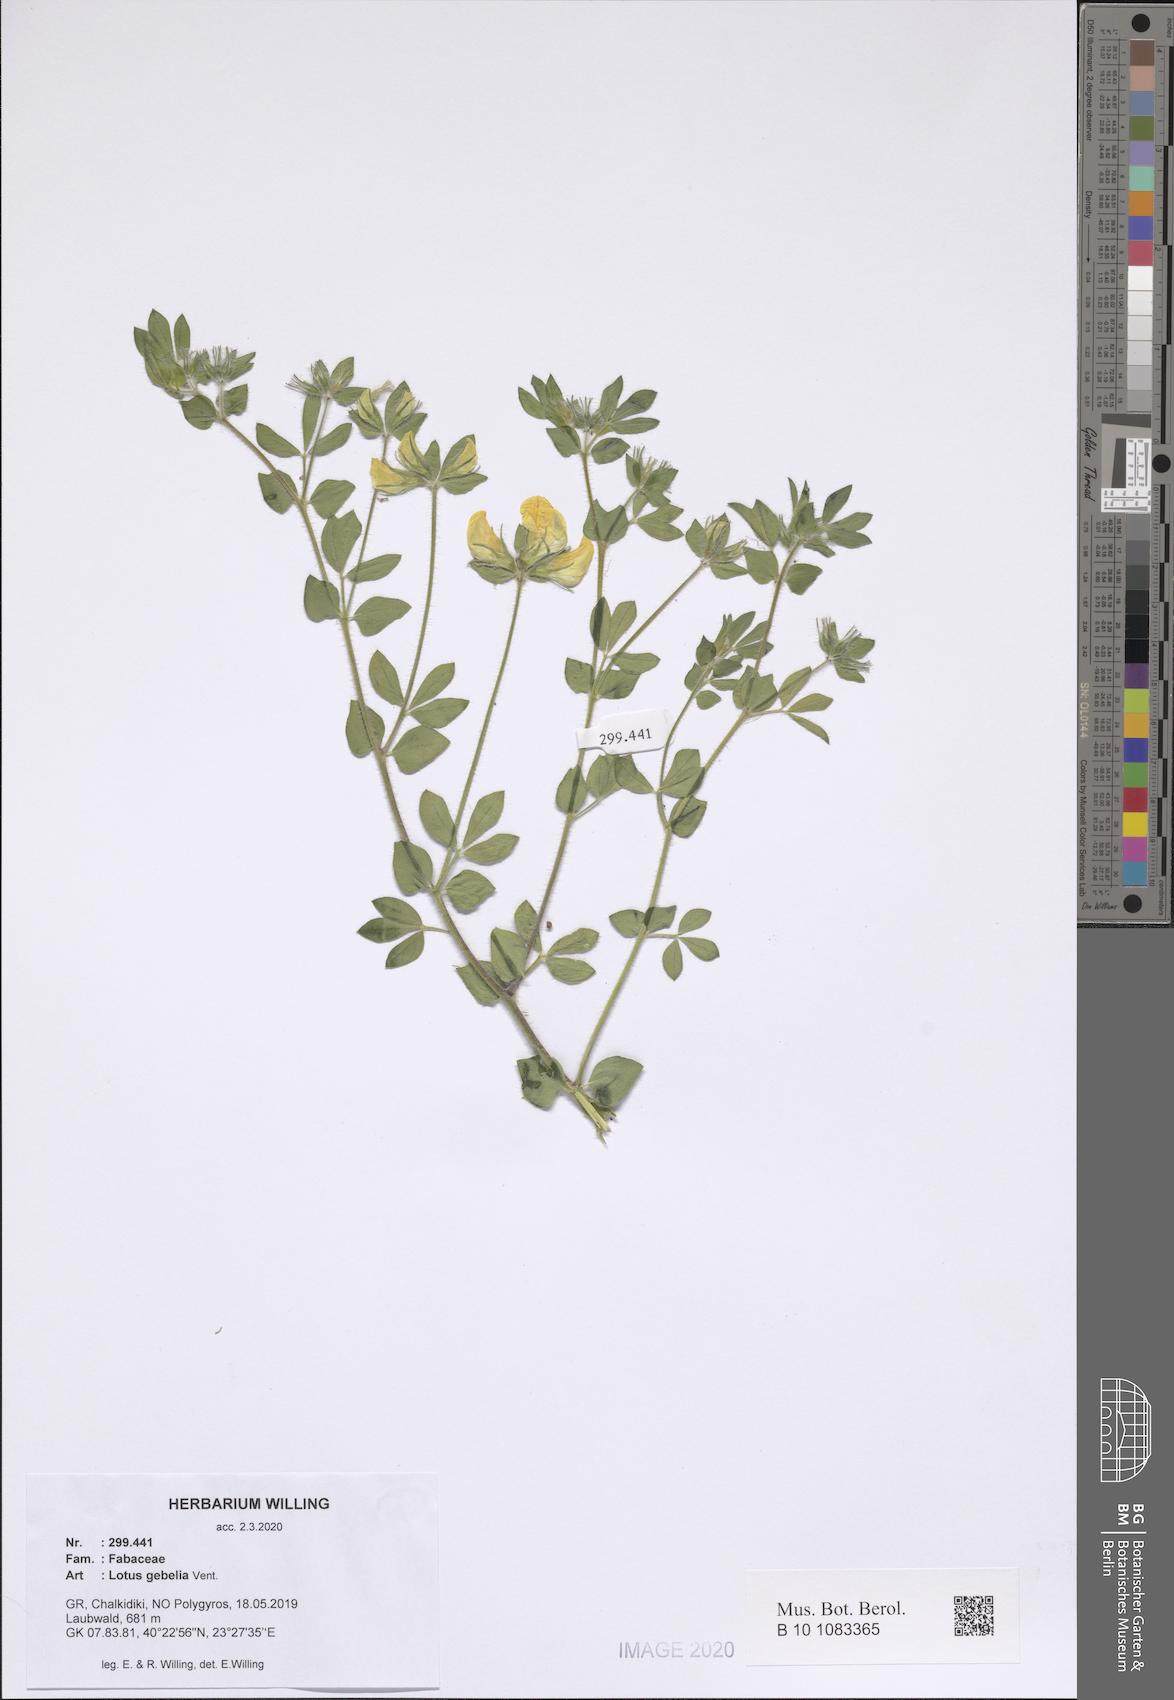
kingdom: Plantae
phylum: Tracheophyta
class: Magnoliopsida
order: Fabales
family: Fabaceae
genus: Lotus
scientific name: Lotus gebelia
